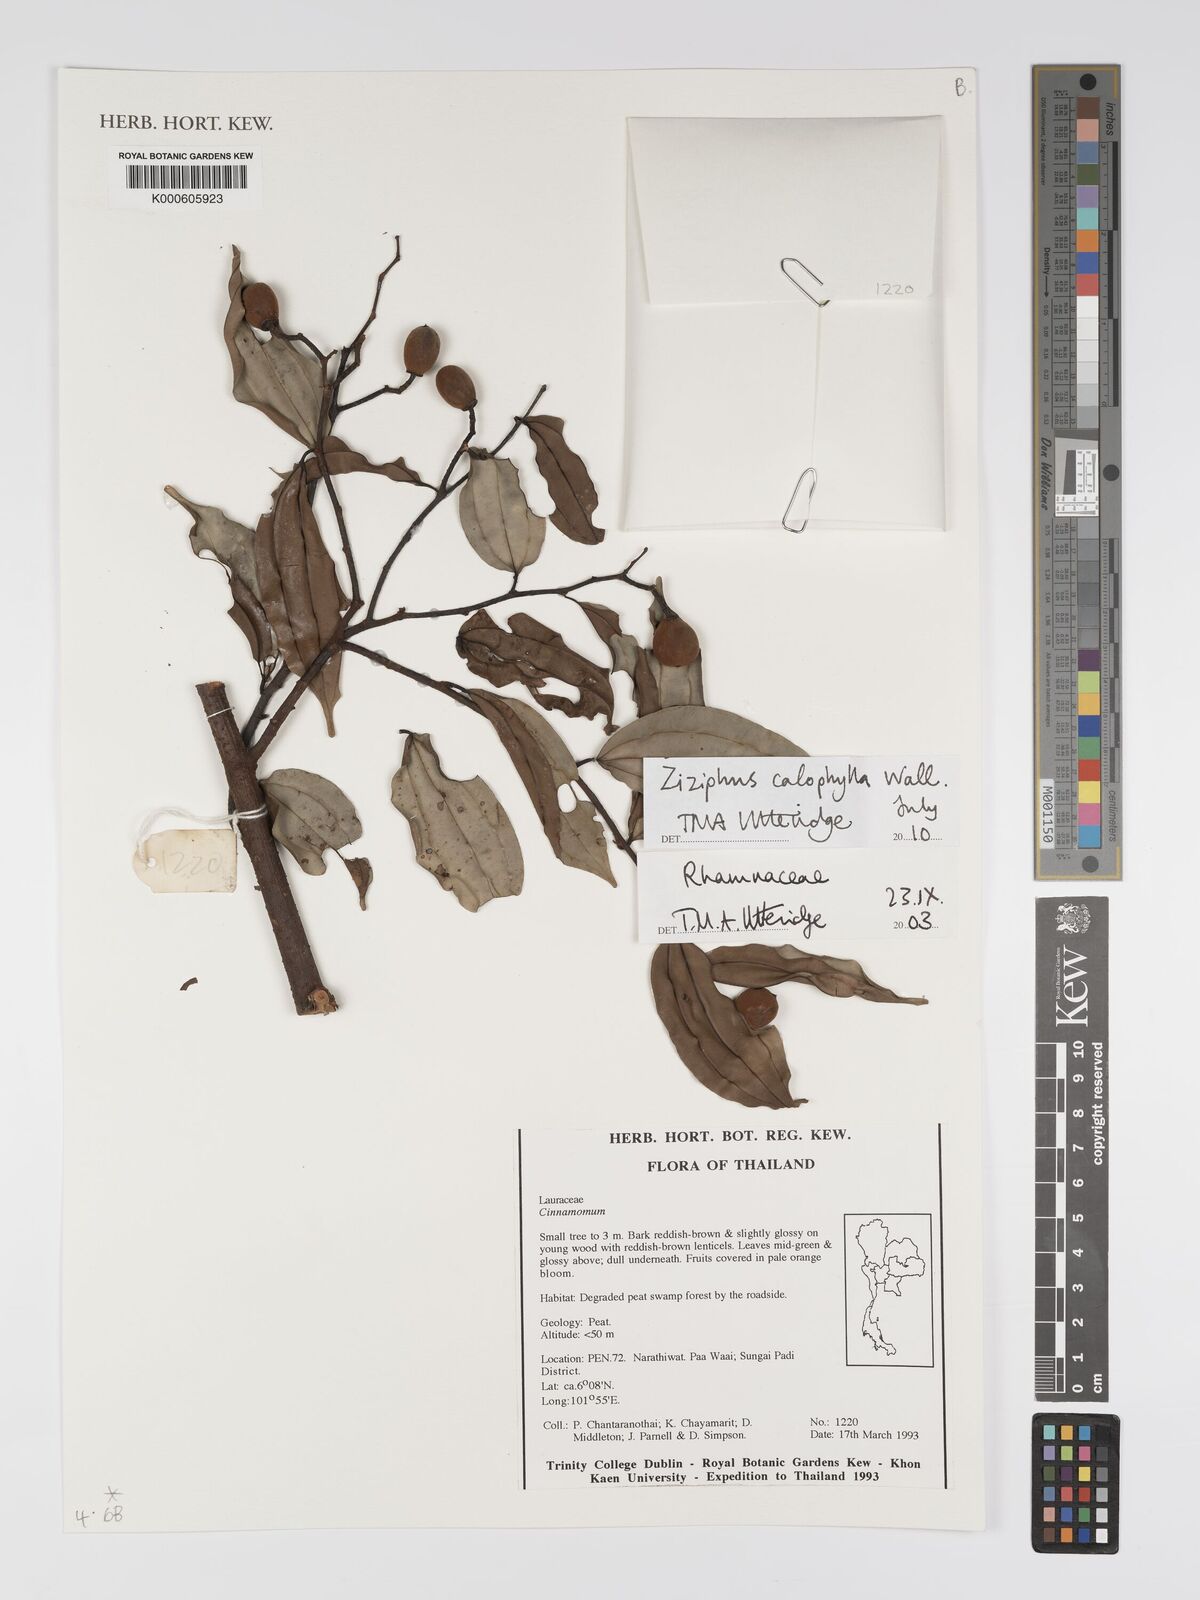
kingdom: Plantae
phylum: Tracheophyta
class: Magnoliopsida
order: Rosales
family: Rhamnaceae
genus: Ziziphus
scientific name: Ziziphus calophylla
